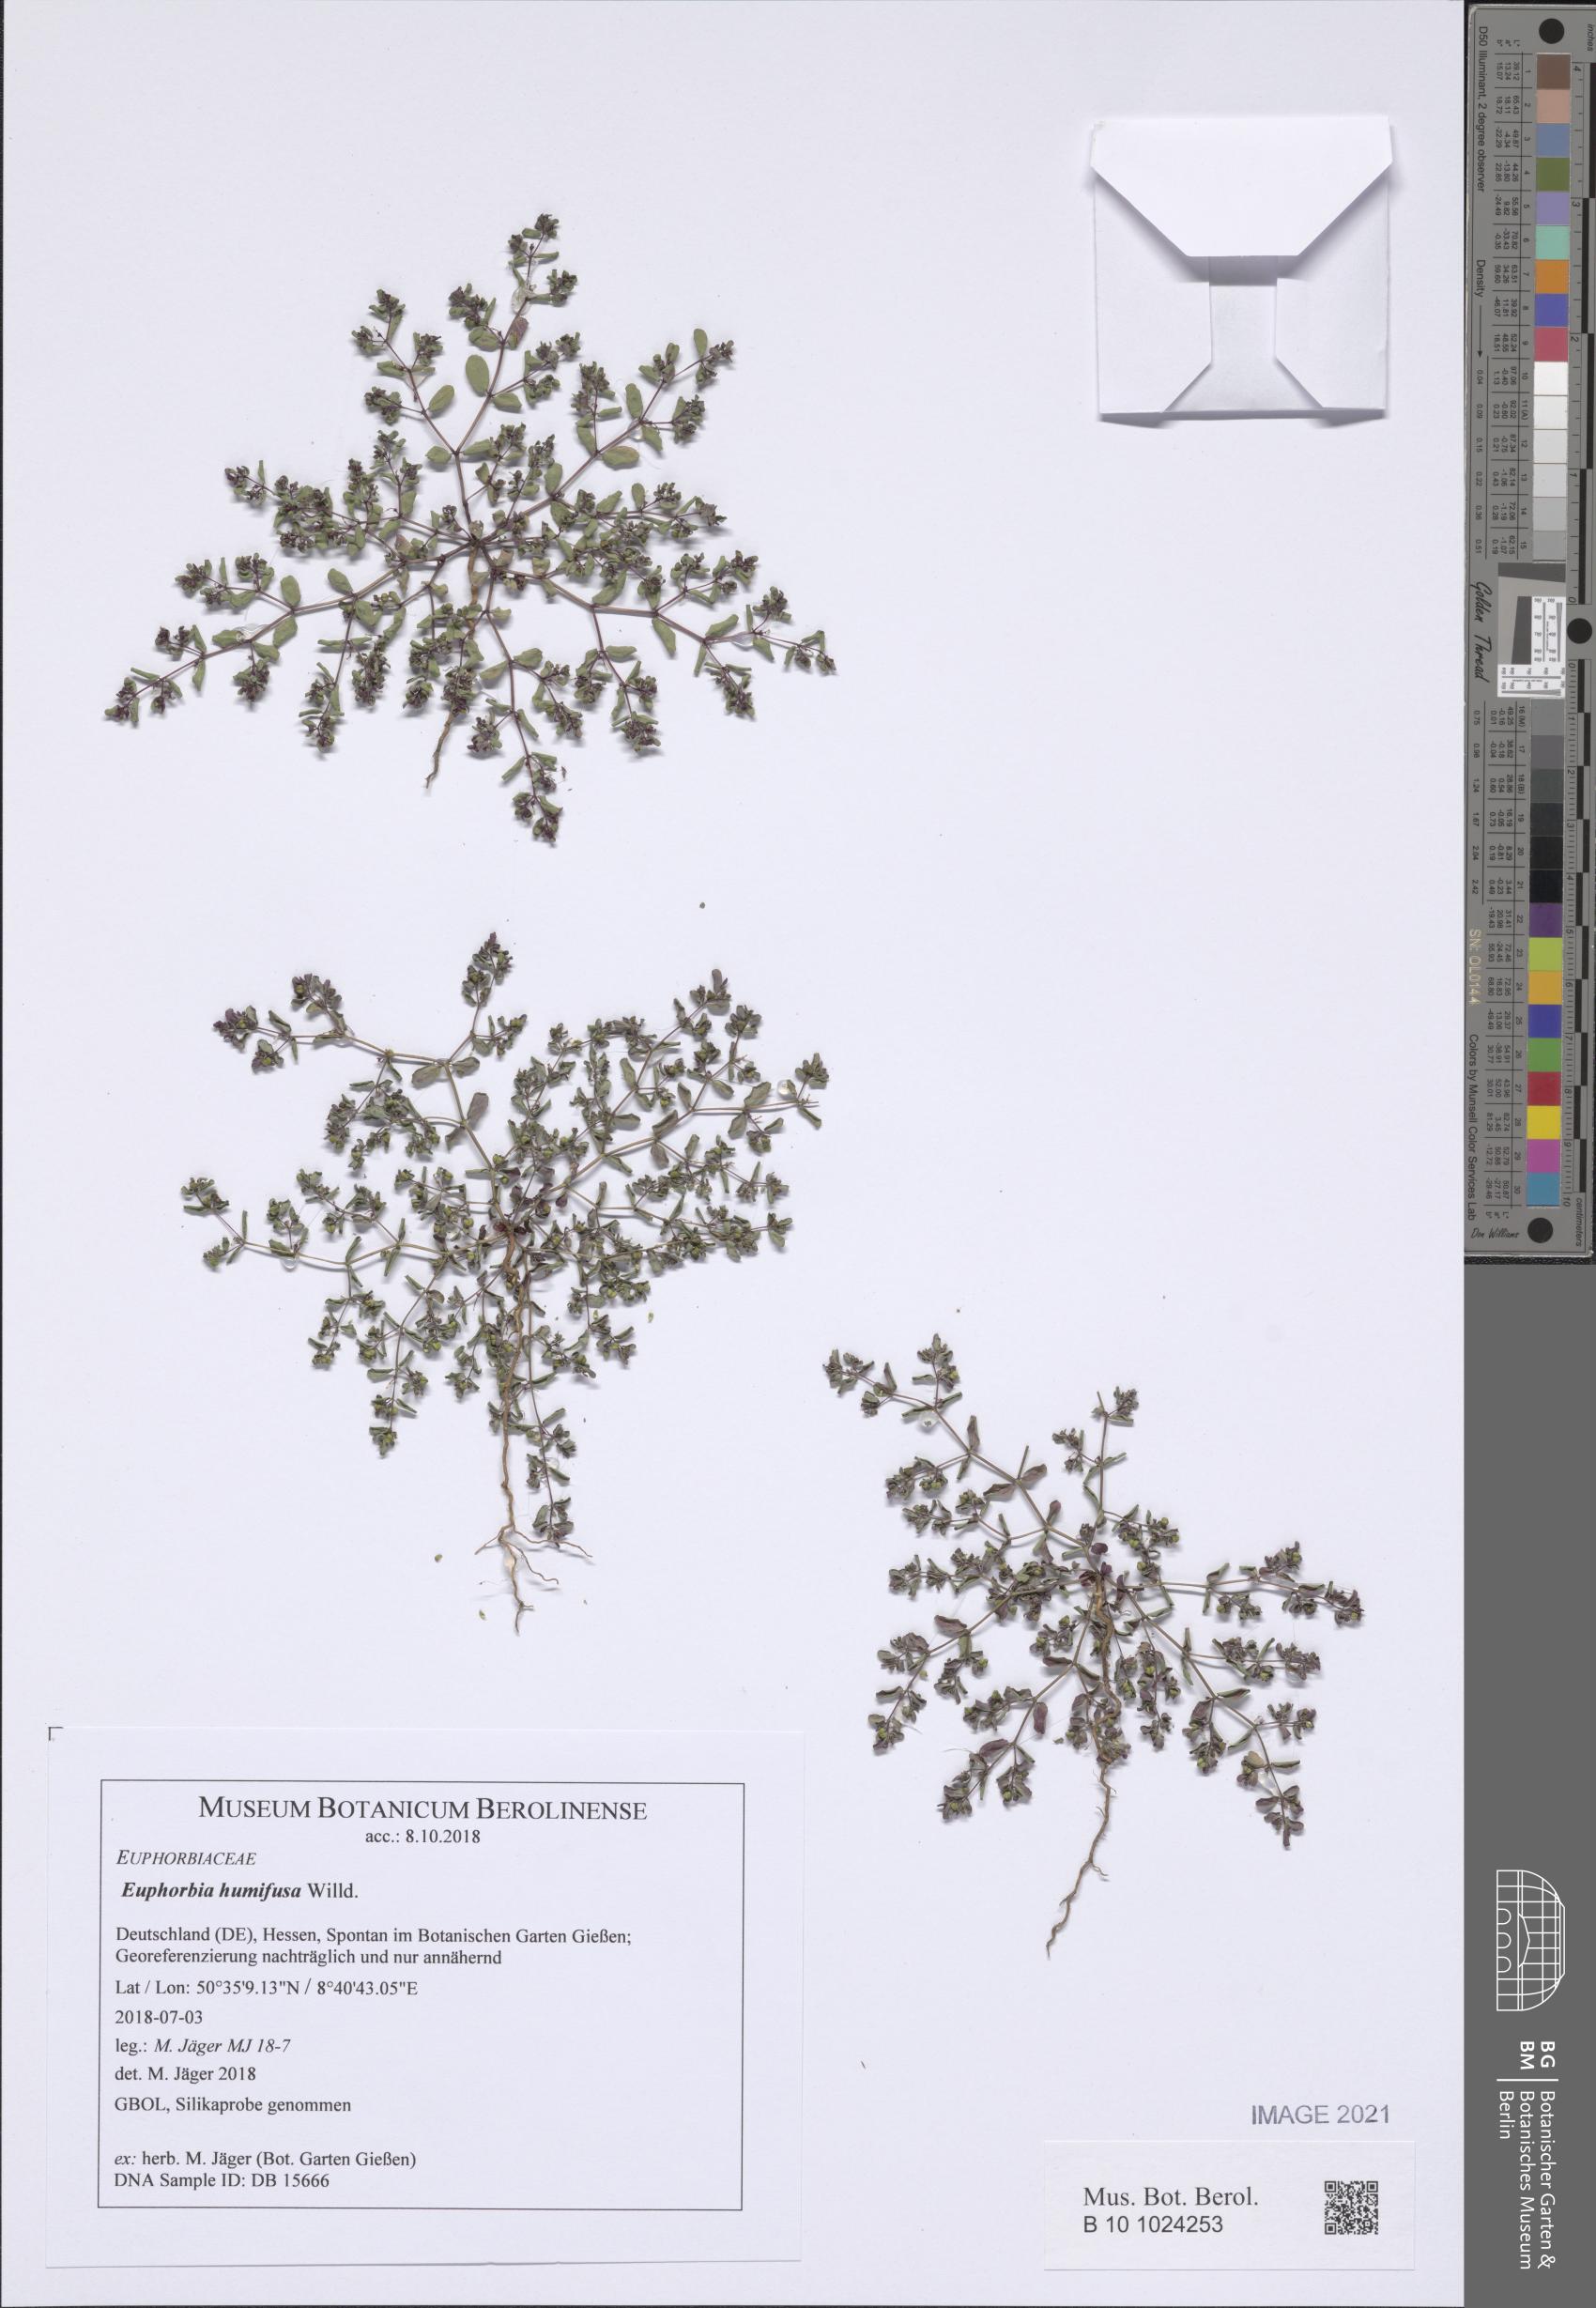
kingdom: Plantae
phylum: Tracheophyta
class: Magnoliopsida
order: Malpighiales
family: Euphorbiaceae
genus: Euphorbia
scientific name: Euphorbia humifusa
